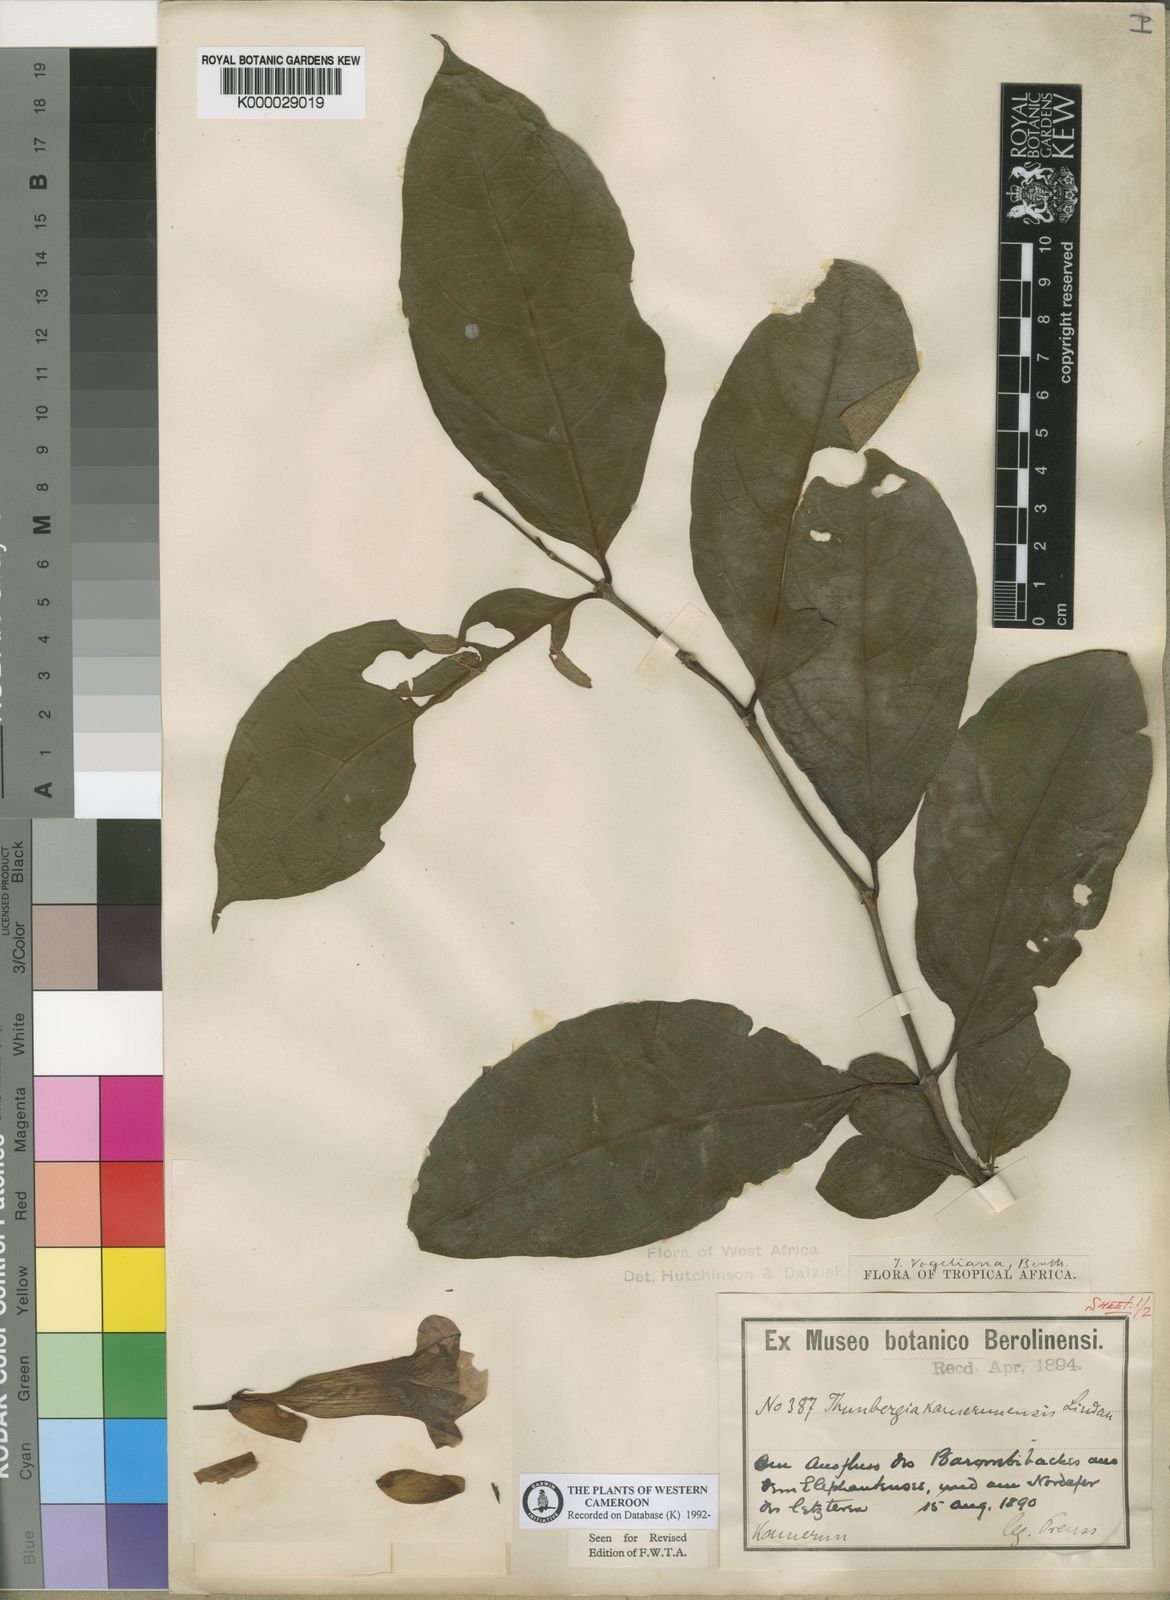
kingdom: Plantae
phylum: Tracheophyta
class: Magnoliopsida
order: Lamiales
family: Acanthaceae
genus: Thunbergia
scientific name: Thunbergia vogeliana
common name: Acanthaceae
